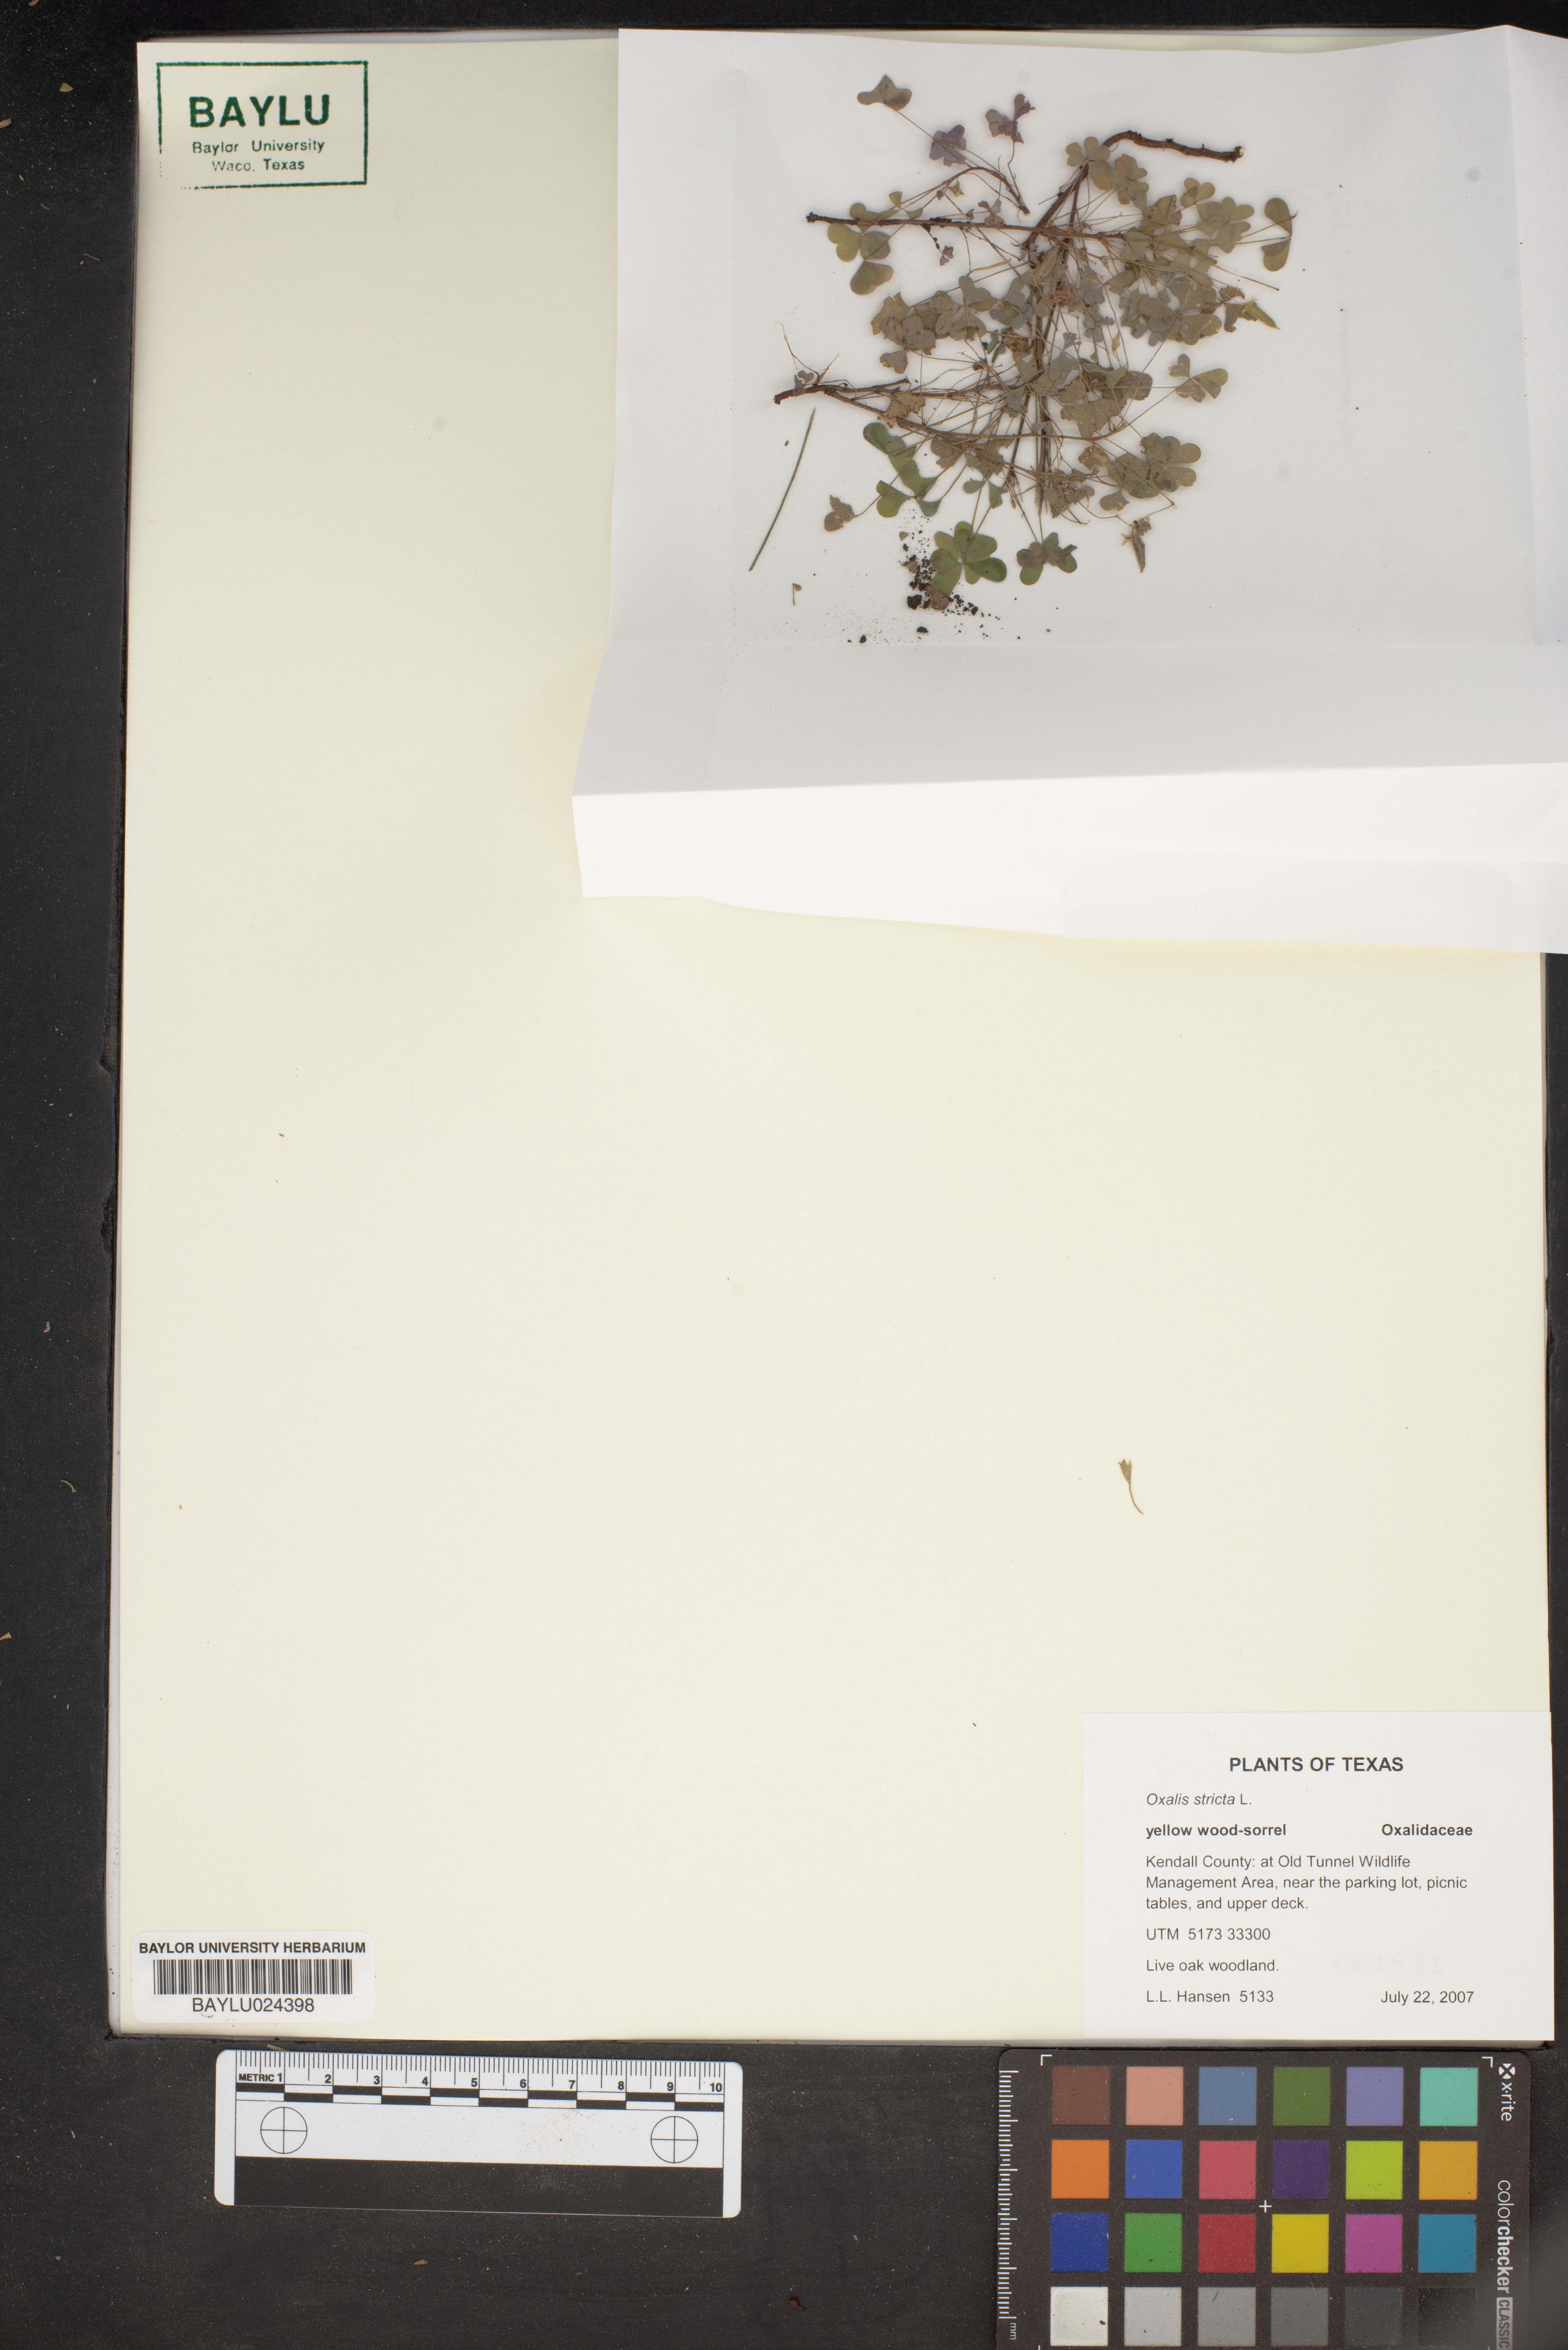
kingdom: Plantae
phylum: Tracheophyta
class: Magnoliopsida
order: Oxalidales
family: Oxalidaceae
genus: Oxalis
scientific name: Oxalis stricta
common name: Upright yellow-sorrel
